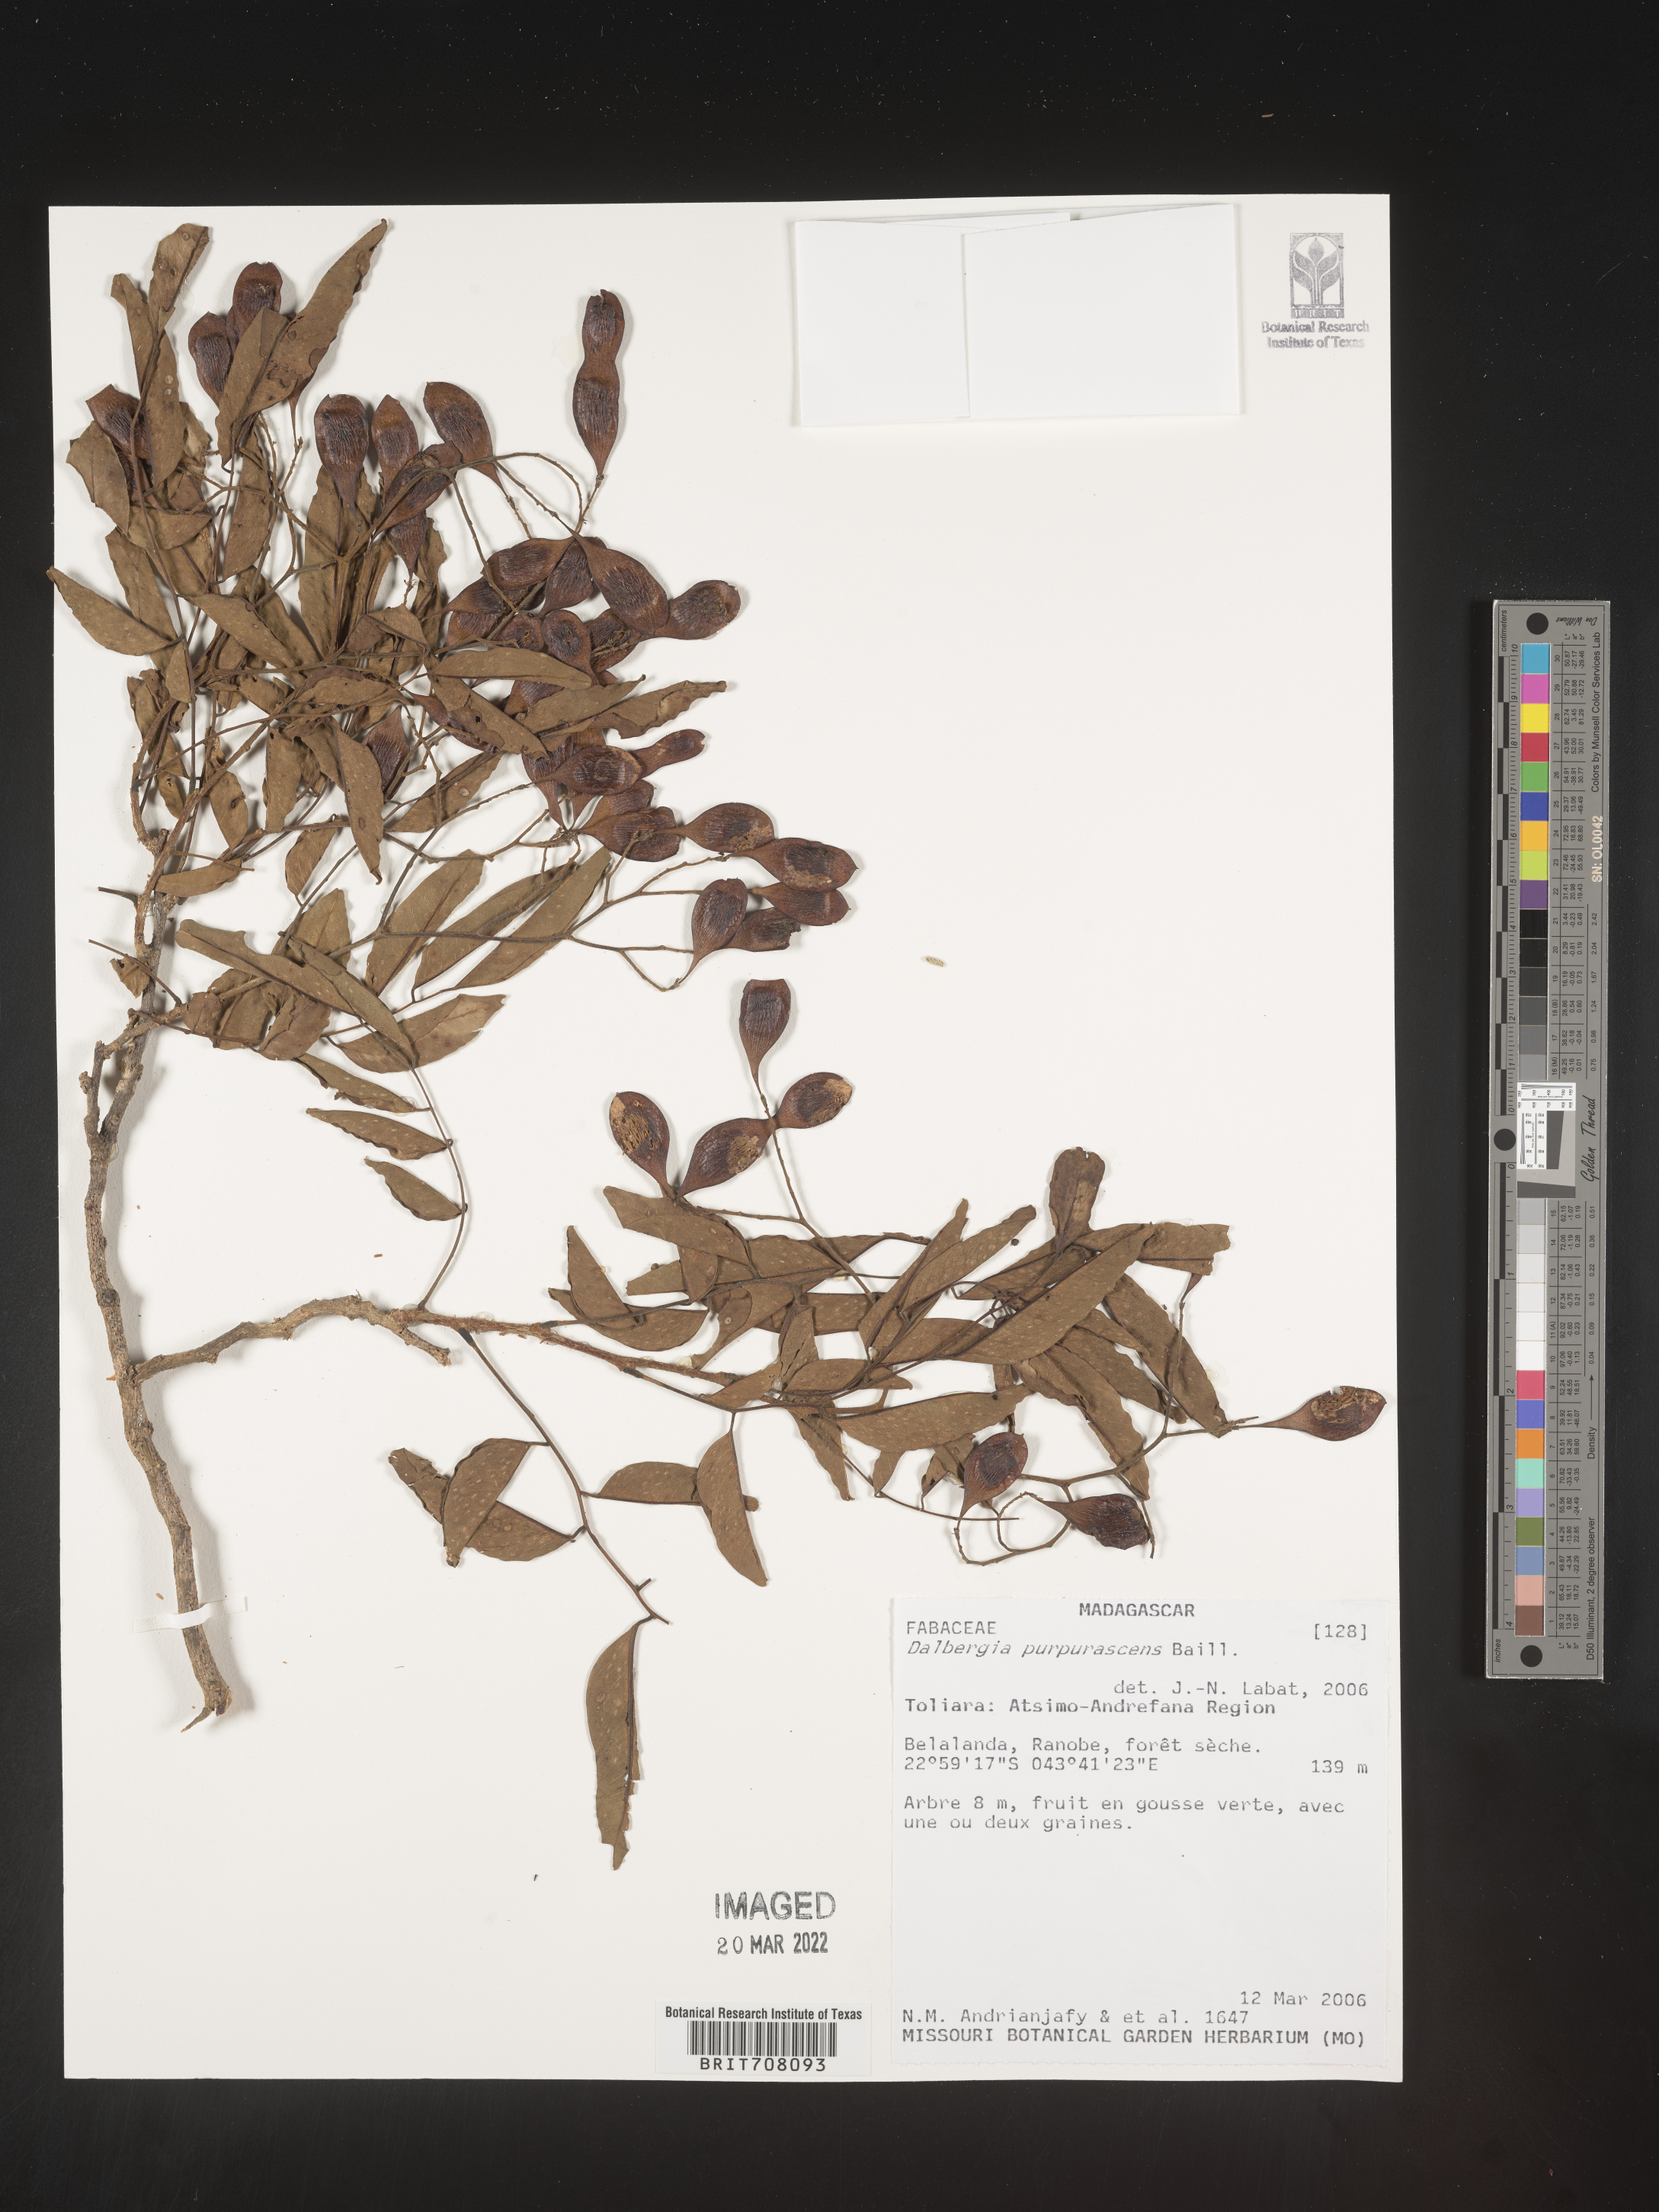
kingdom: Plantae
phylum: Tracheophyta
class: Magnoliopsida
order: Fabales
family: Fabaceae
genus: Dalbergia
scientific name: Dalbergia
